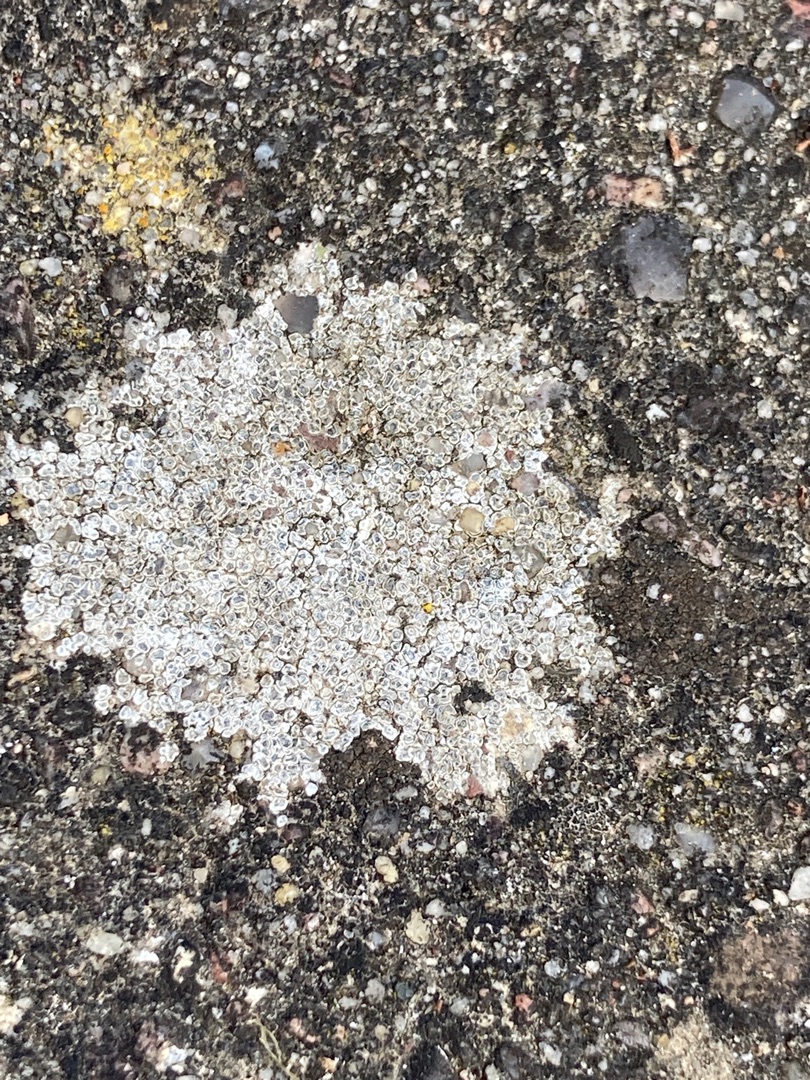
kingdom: Fungi
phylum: Ascomycota
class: Lecanoromycetes
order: Pertusariales
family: Megasporaceae
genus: Circinaria
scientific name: Circinaria contorta
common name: Indviklet hulskivelav
